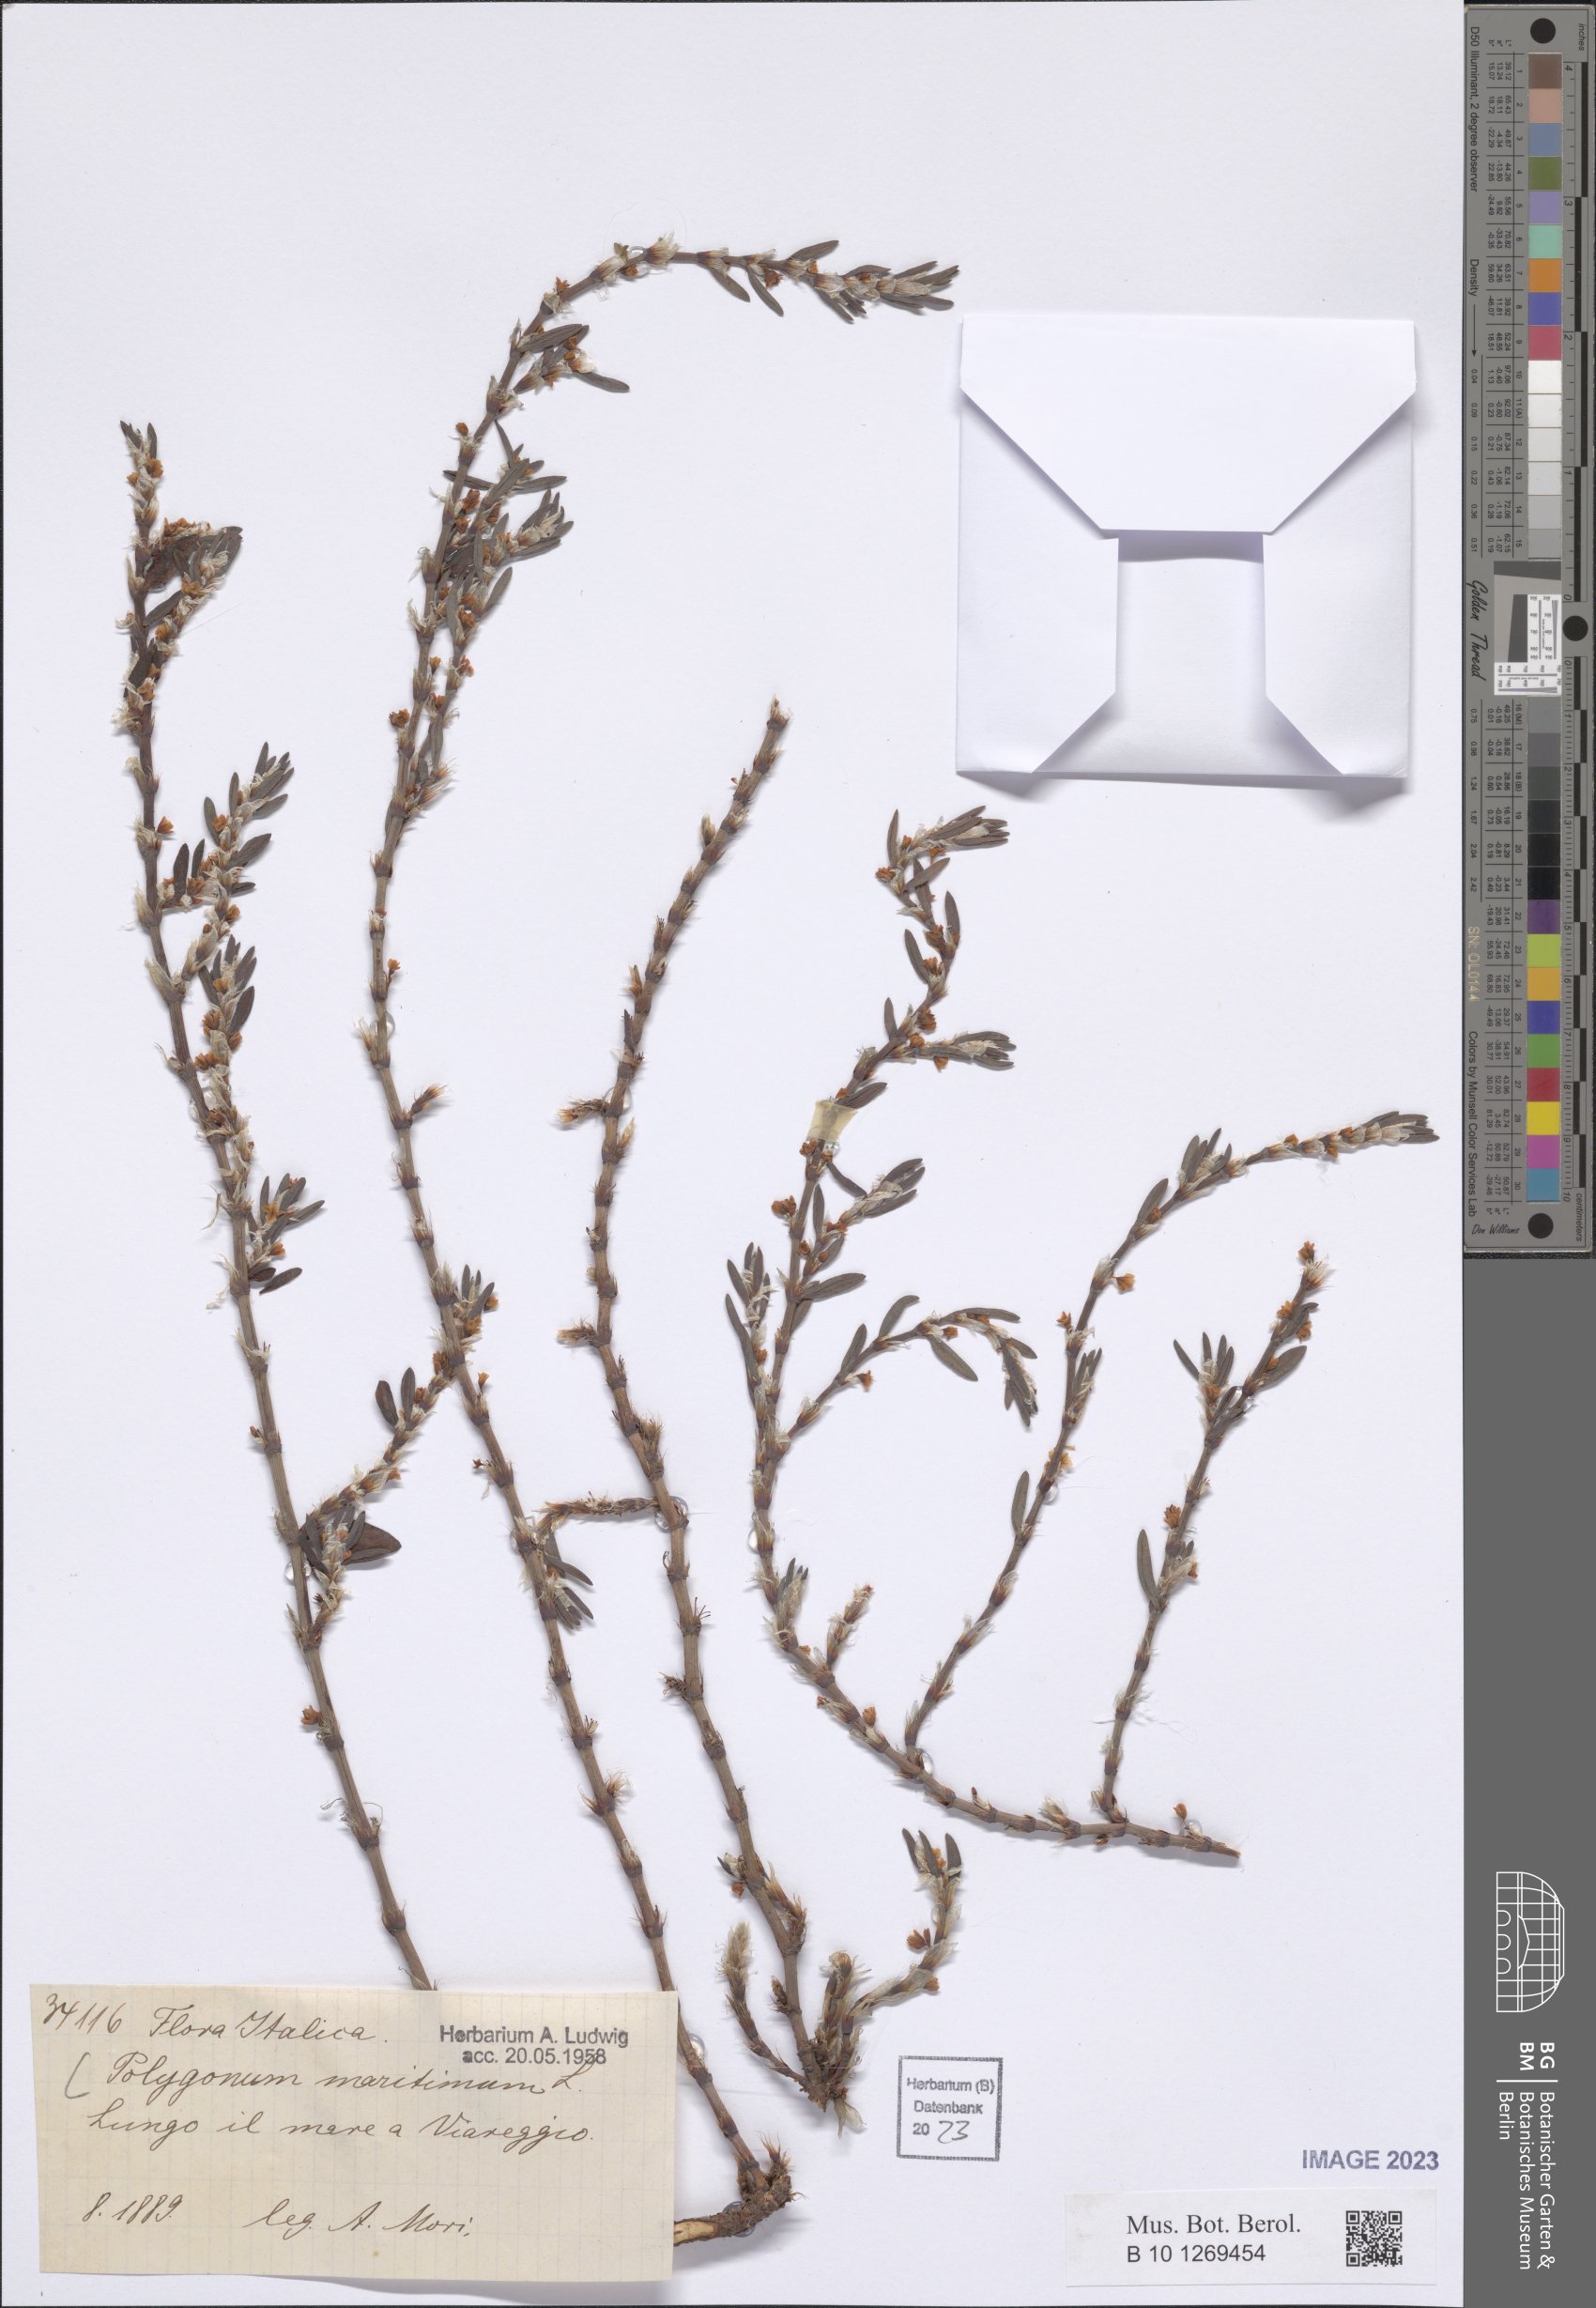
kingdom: Plantae
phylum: Tracheophyta
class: Magnoliopsida
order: Caryophyllales
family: Polygonaceae
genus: Polygonum
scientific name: Polygonum maritimum
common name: Sea knotgrass
